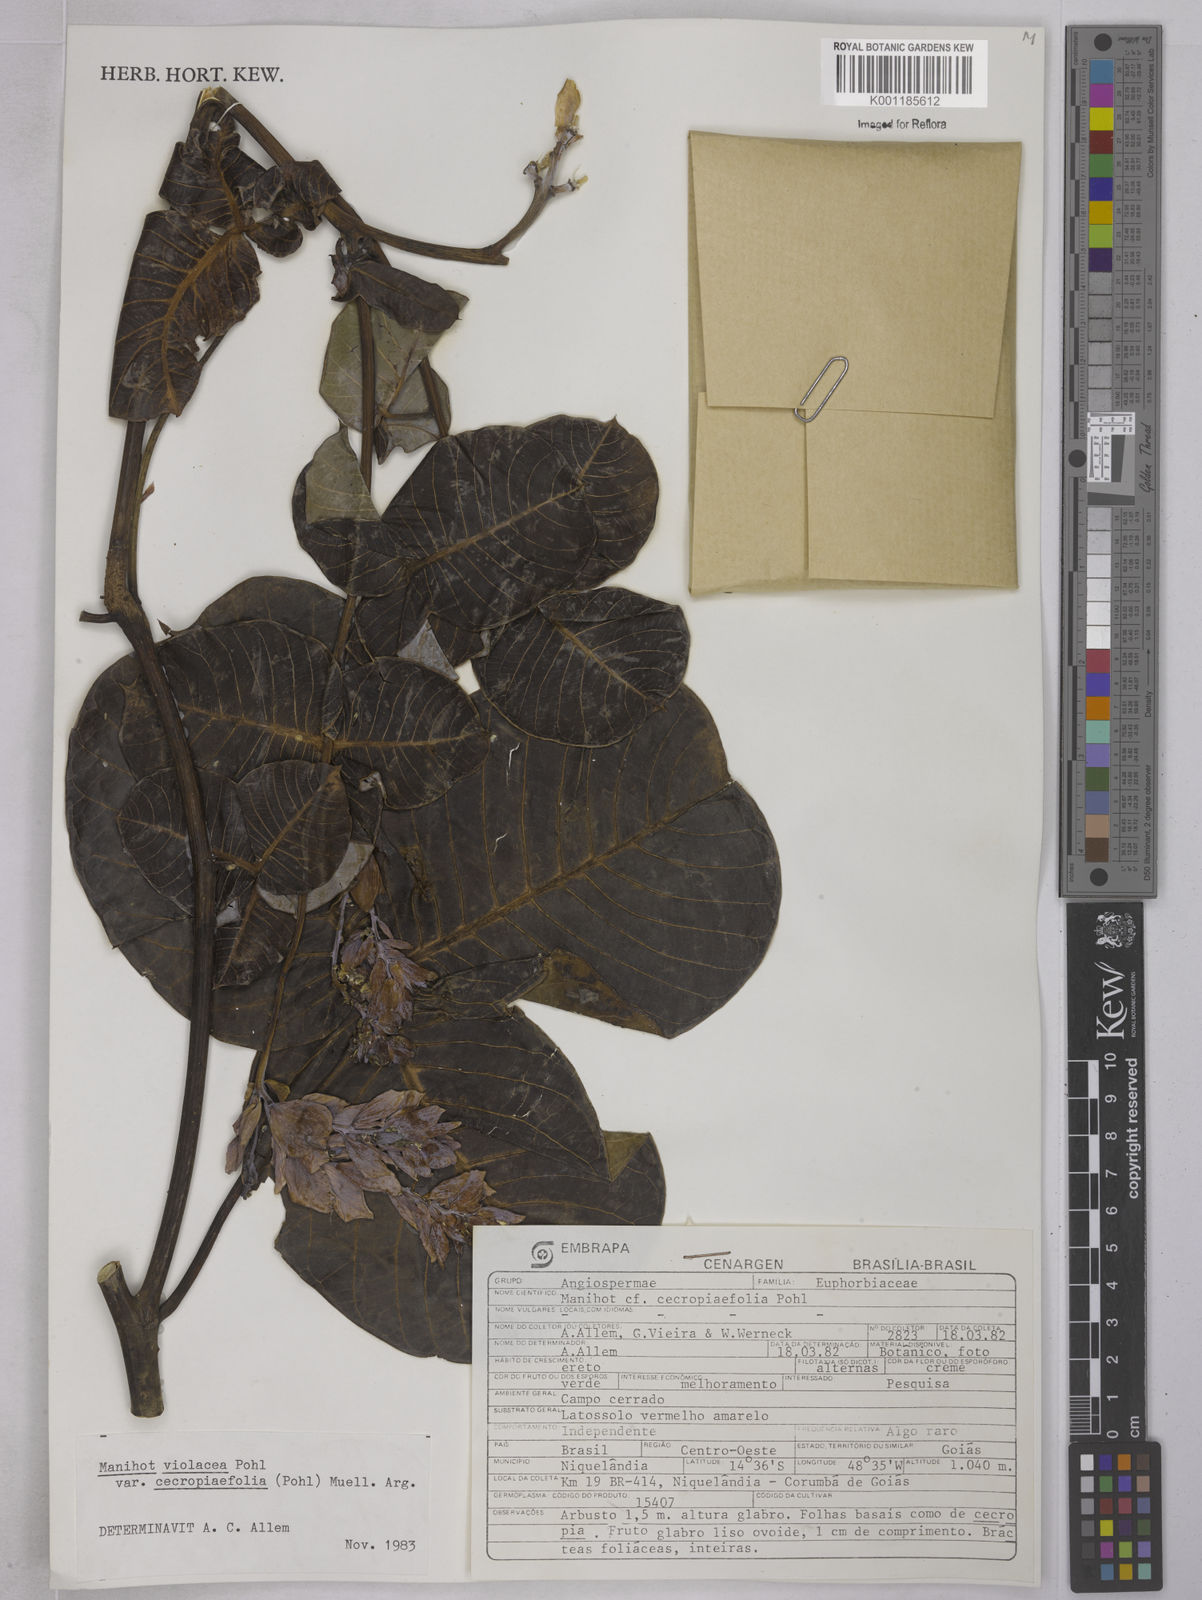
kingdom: Plantae
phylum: Tracheophyta
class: Magnoliopsida
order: Malpighiales
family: Euphorbiaceae
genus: Manihot
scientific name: Manihot cecropiifolia
